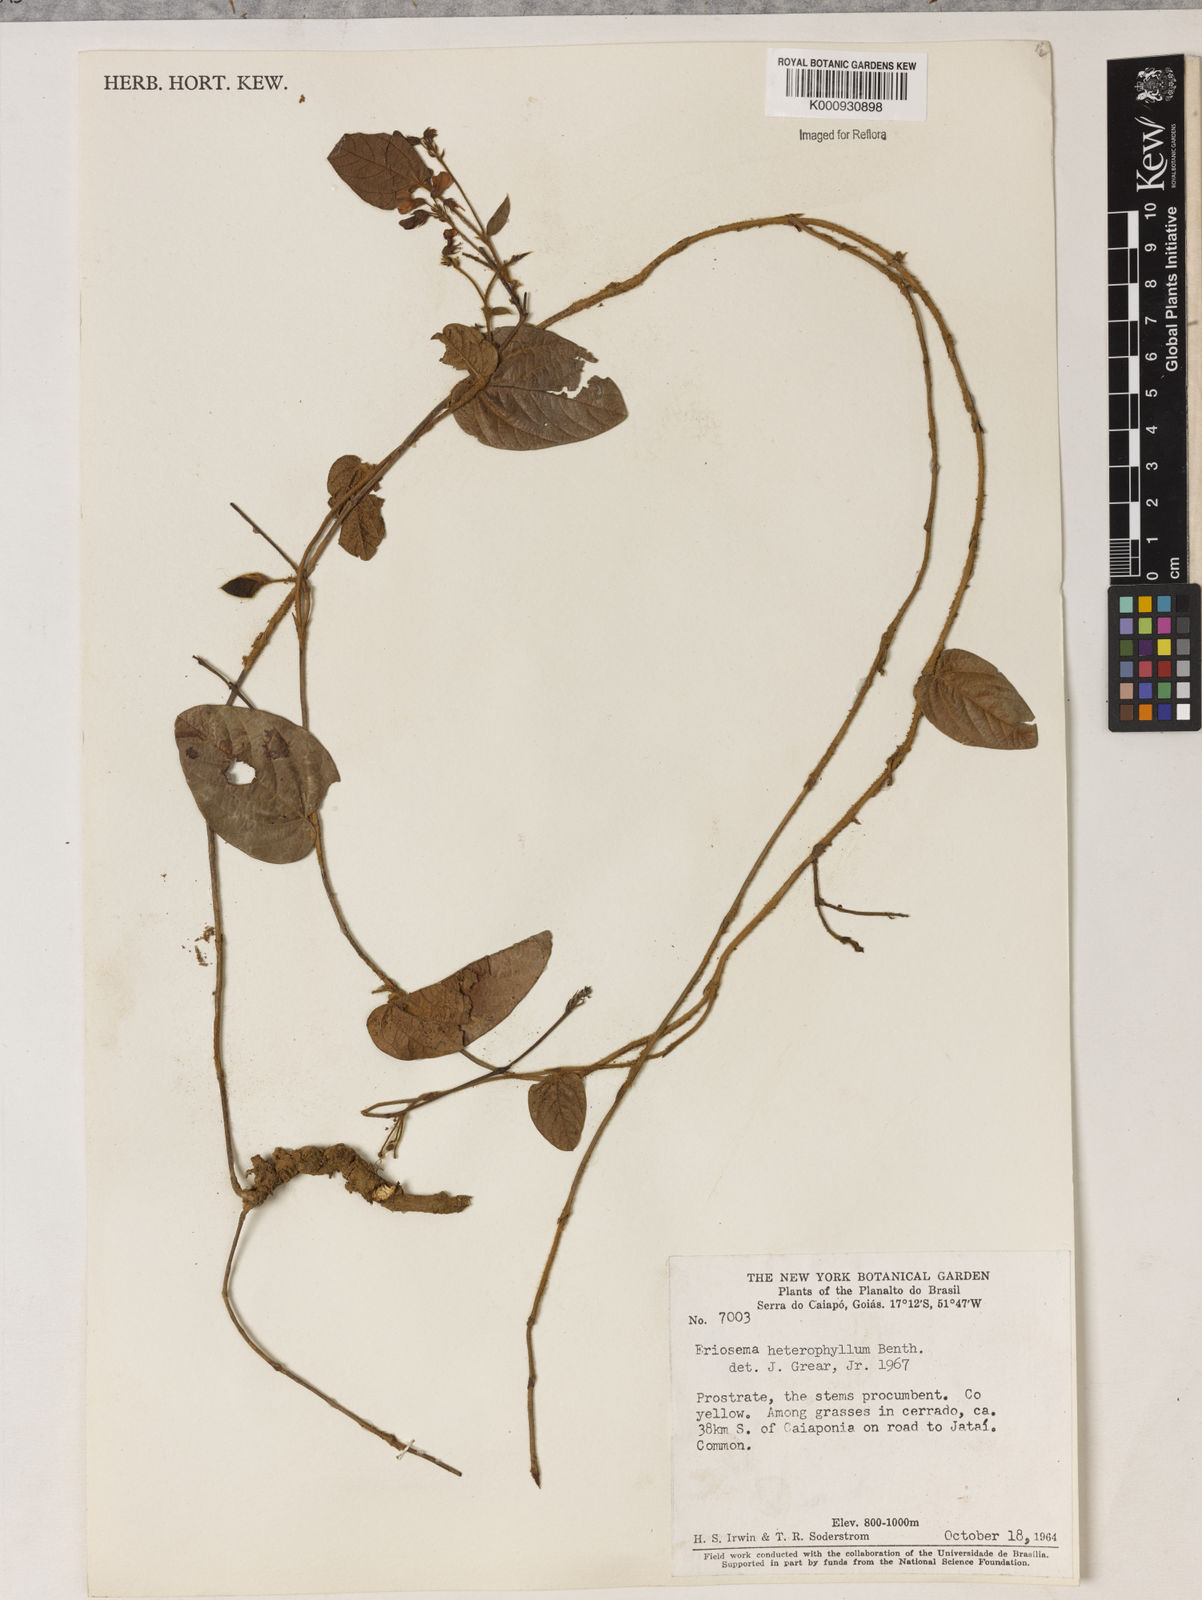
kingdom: Plantae
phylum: Tracheophyta
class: Magnoliopsida
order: Fabales
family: Fabaceae
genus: Eriosema
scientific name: Eriosema heterophyllum
